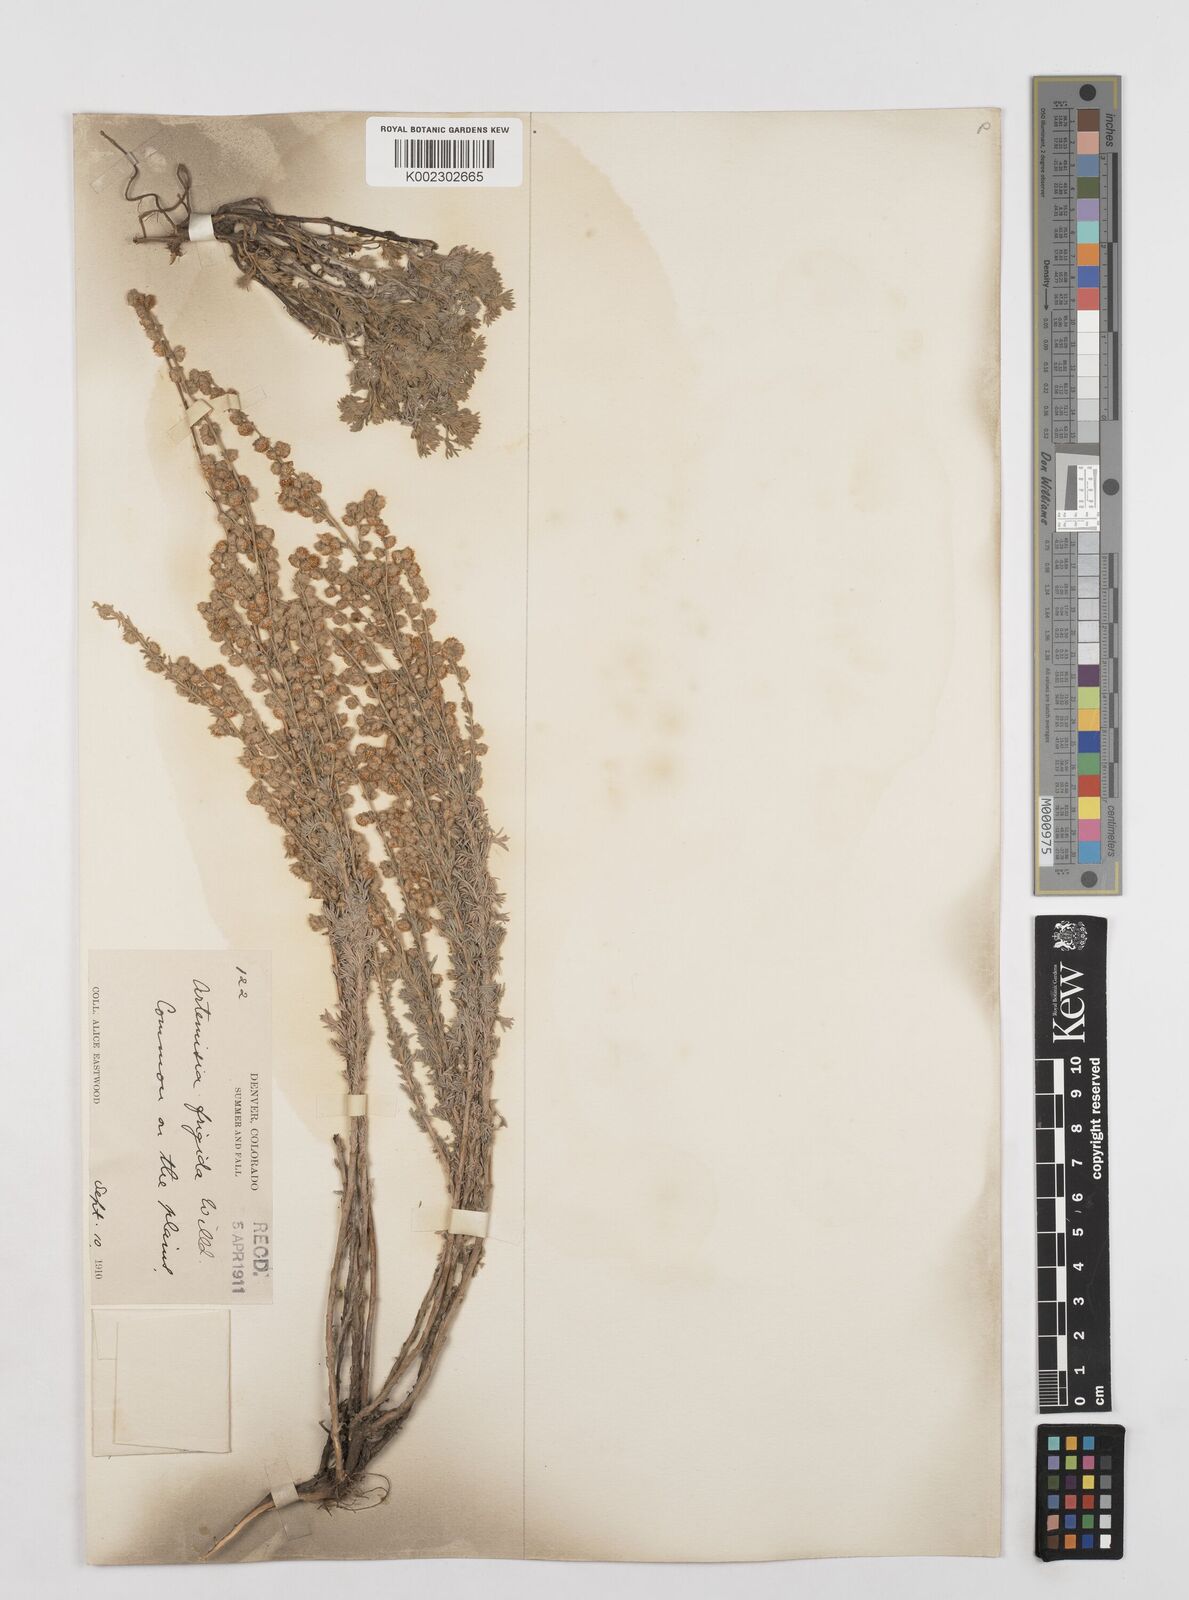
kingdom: Plantae
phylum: Tracheophyta
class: Magnoliopsida
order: Asterales
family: Asteraceae
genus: Artemisia
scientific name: Artemisia frigida
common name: Prairie sagewort
